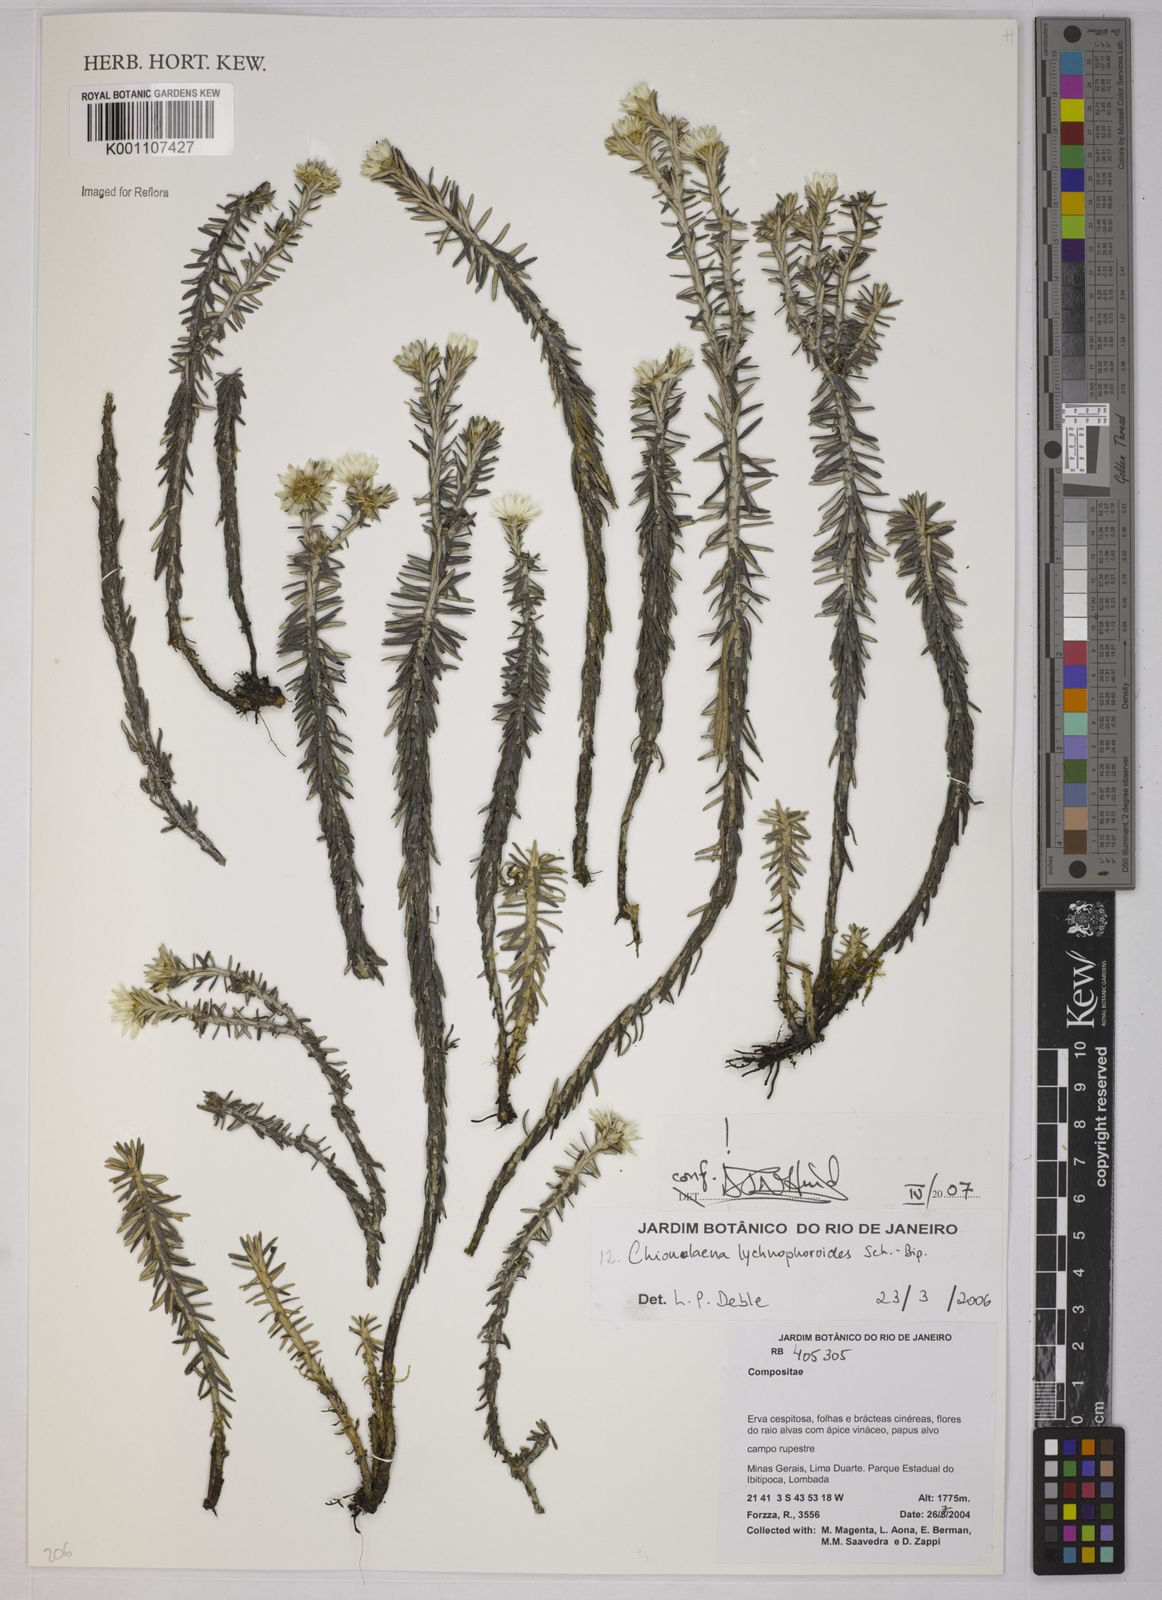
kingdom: Plantae
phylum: Tracheophyta
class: Magnoliopsida
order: Asterales
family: Asteraceae
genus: Chionolaena
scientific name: Chionolaena lychnophorioides
